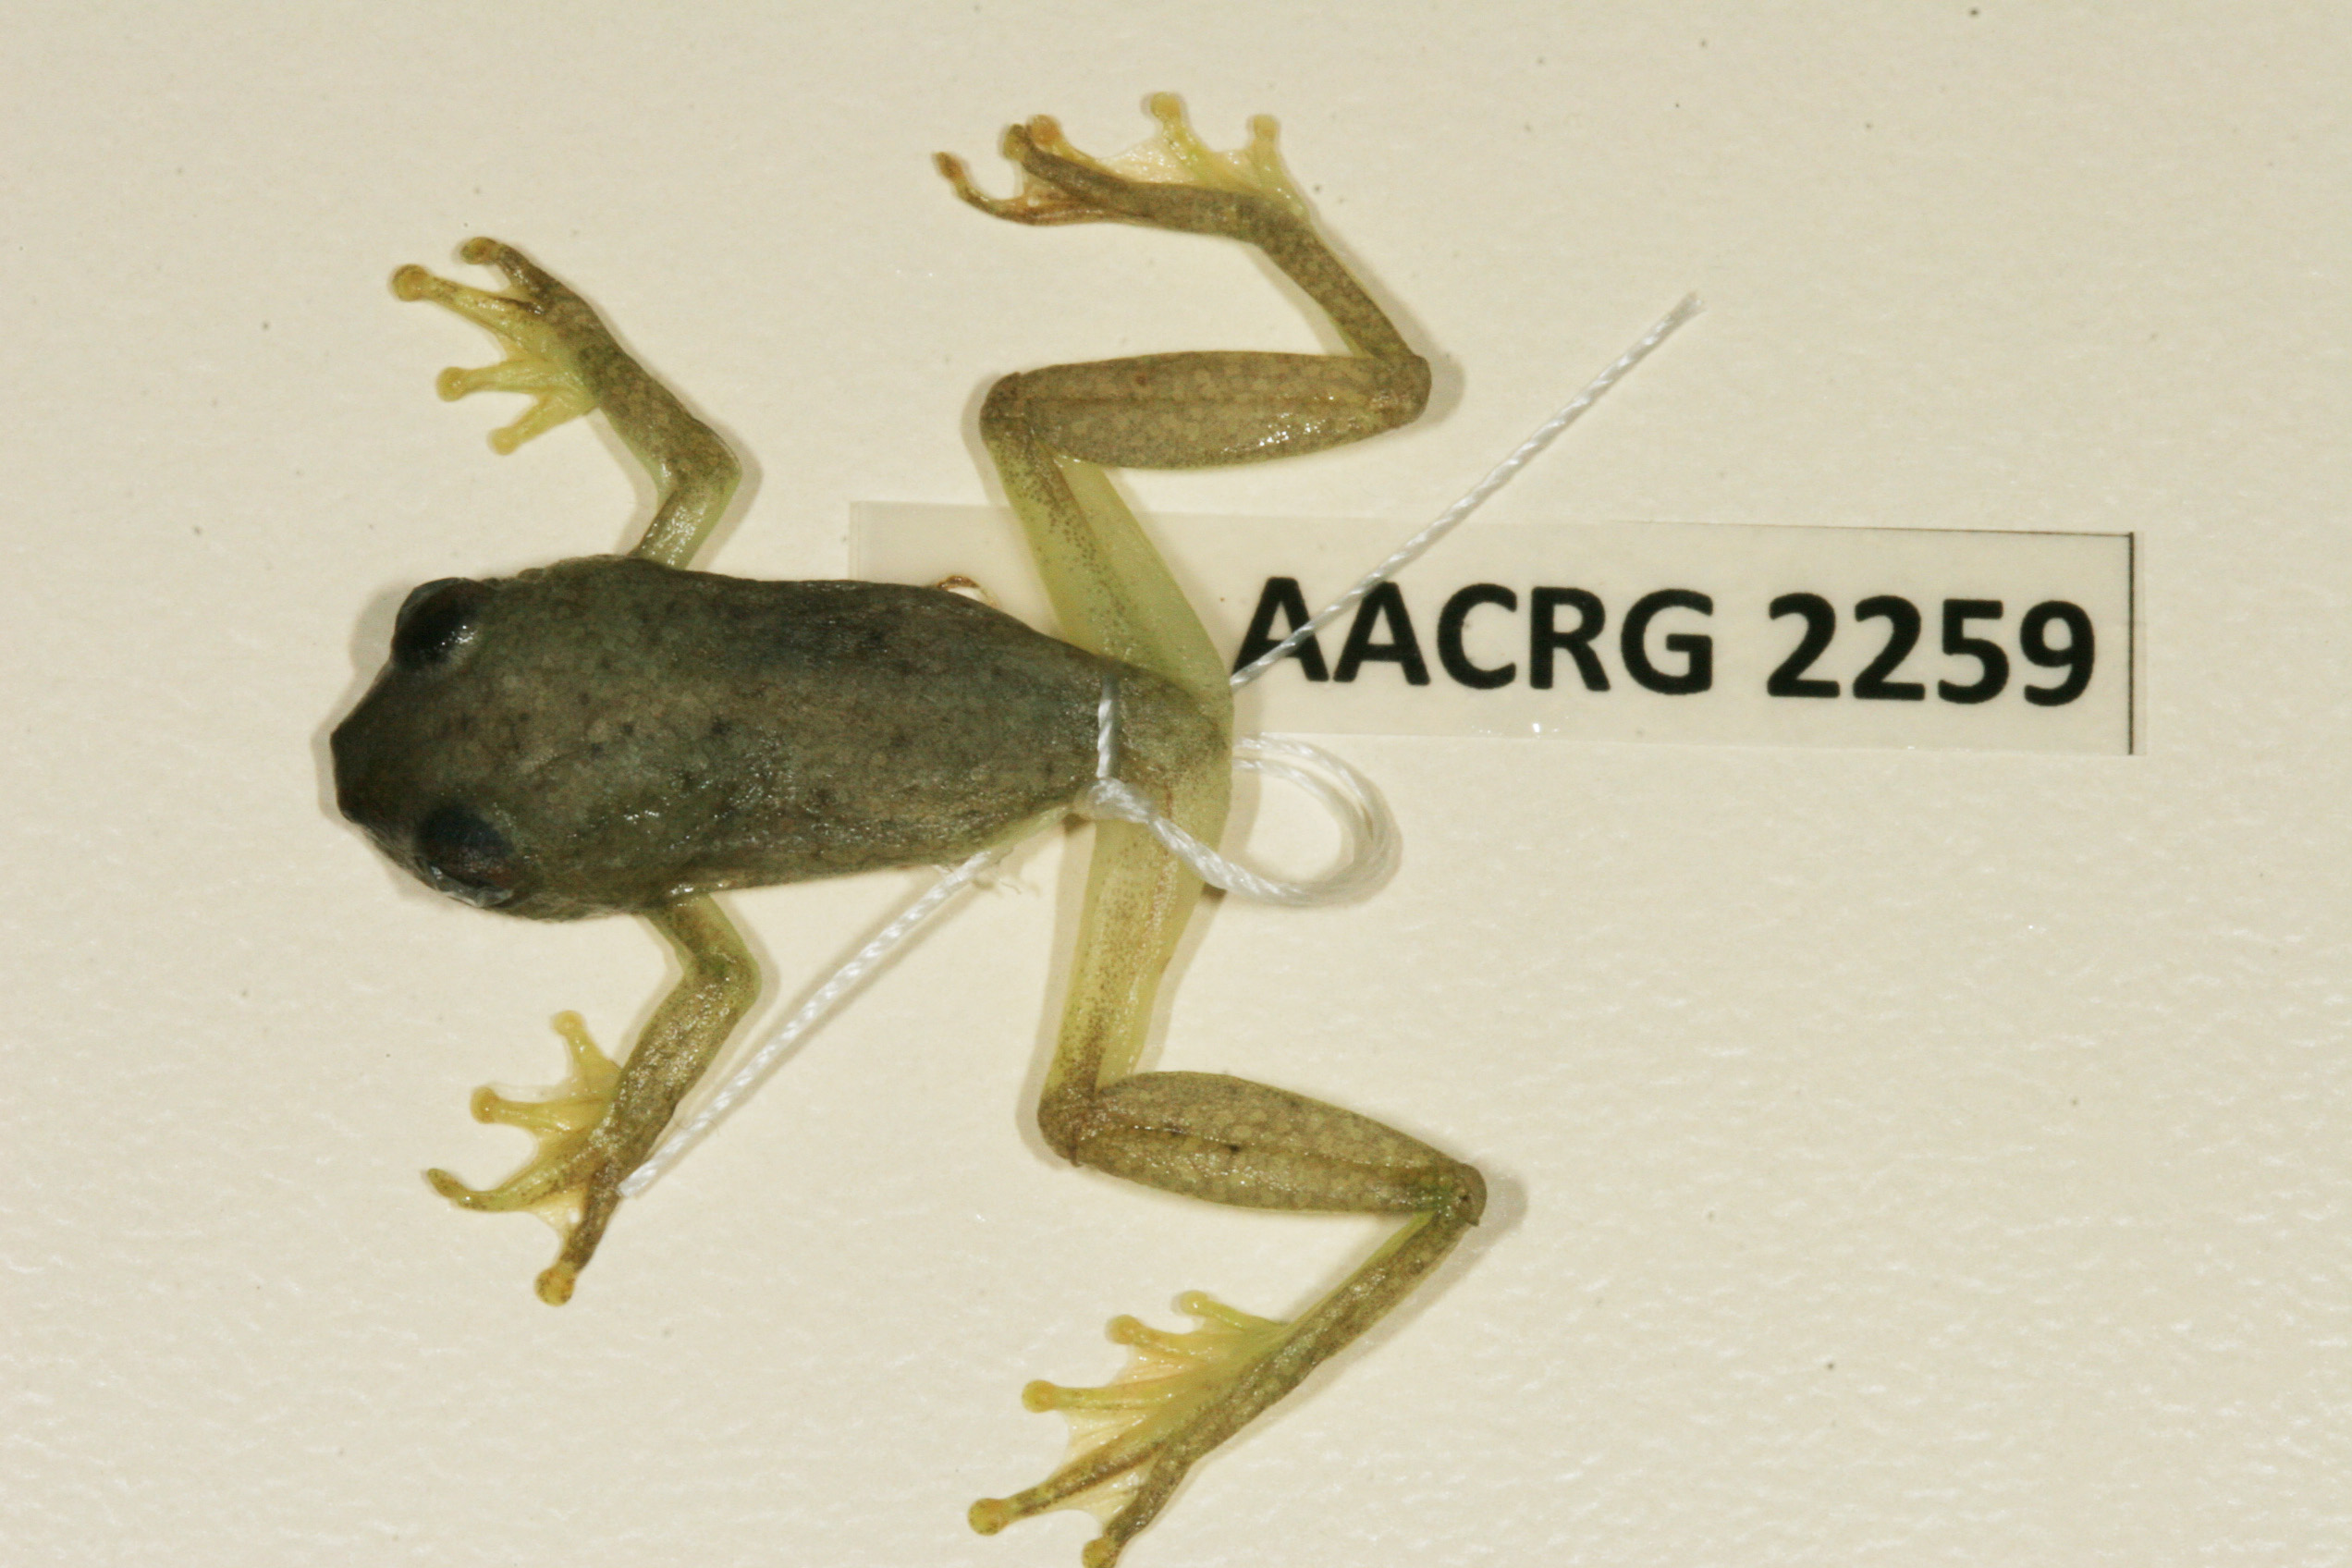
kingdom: Animalia
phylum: Chordata
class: Amphibia
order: Anura
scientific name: Anura
